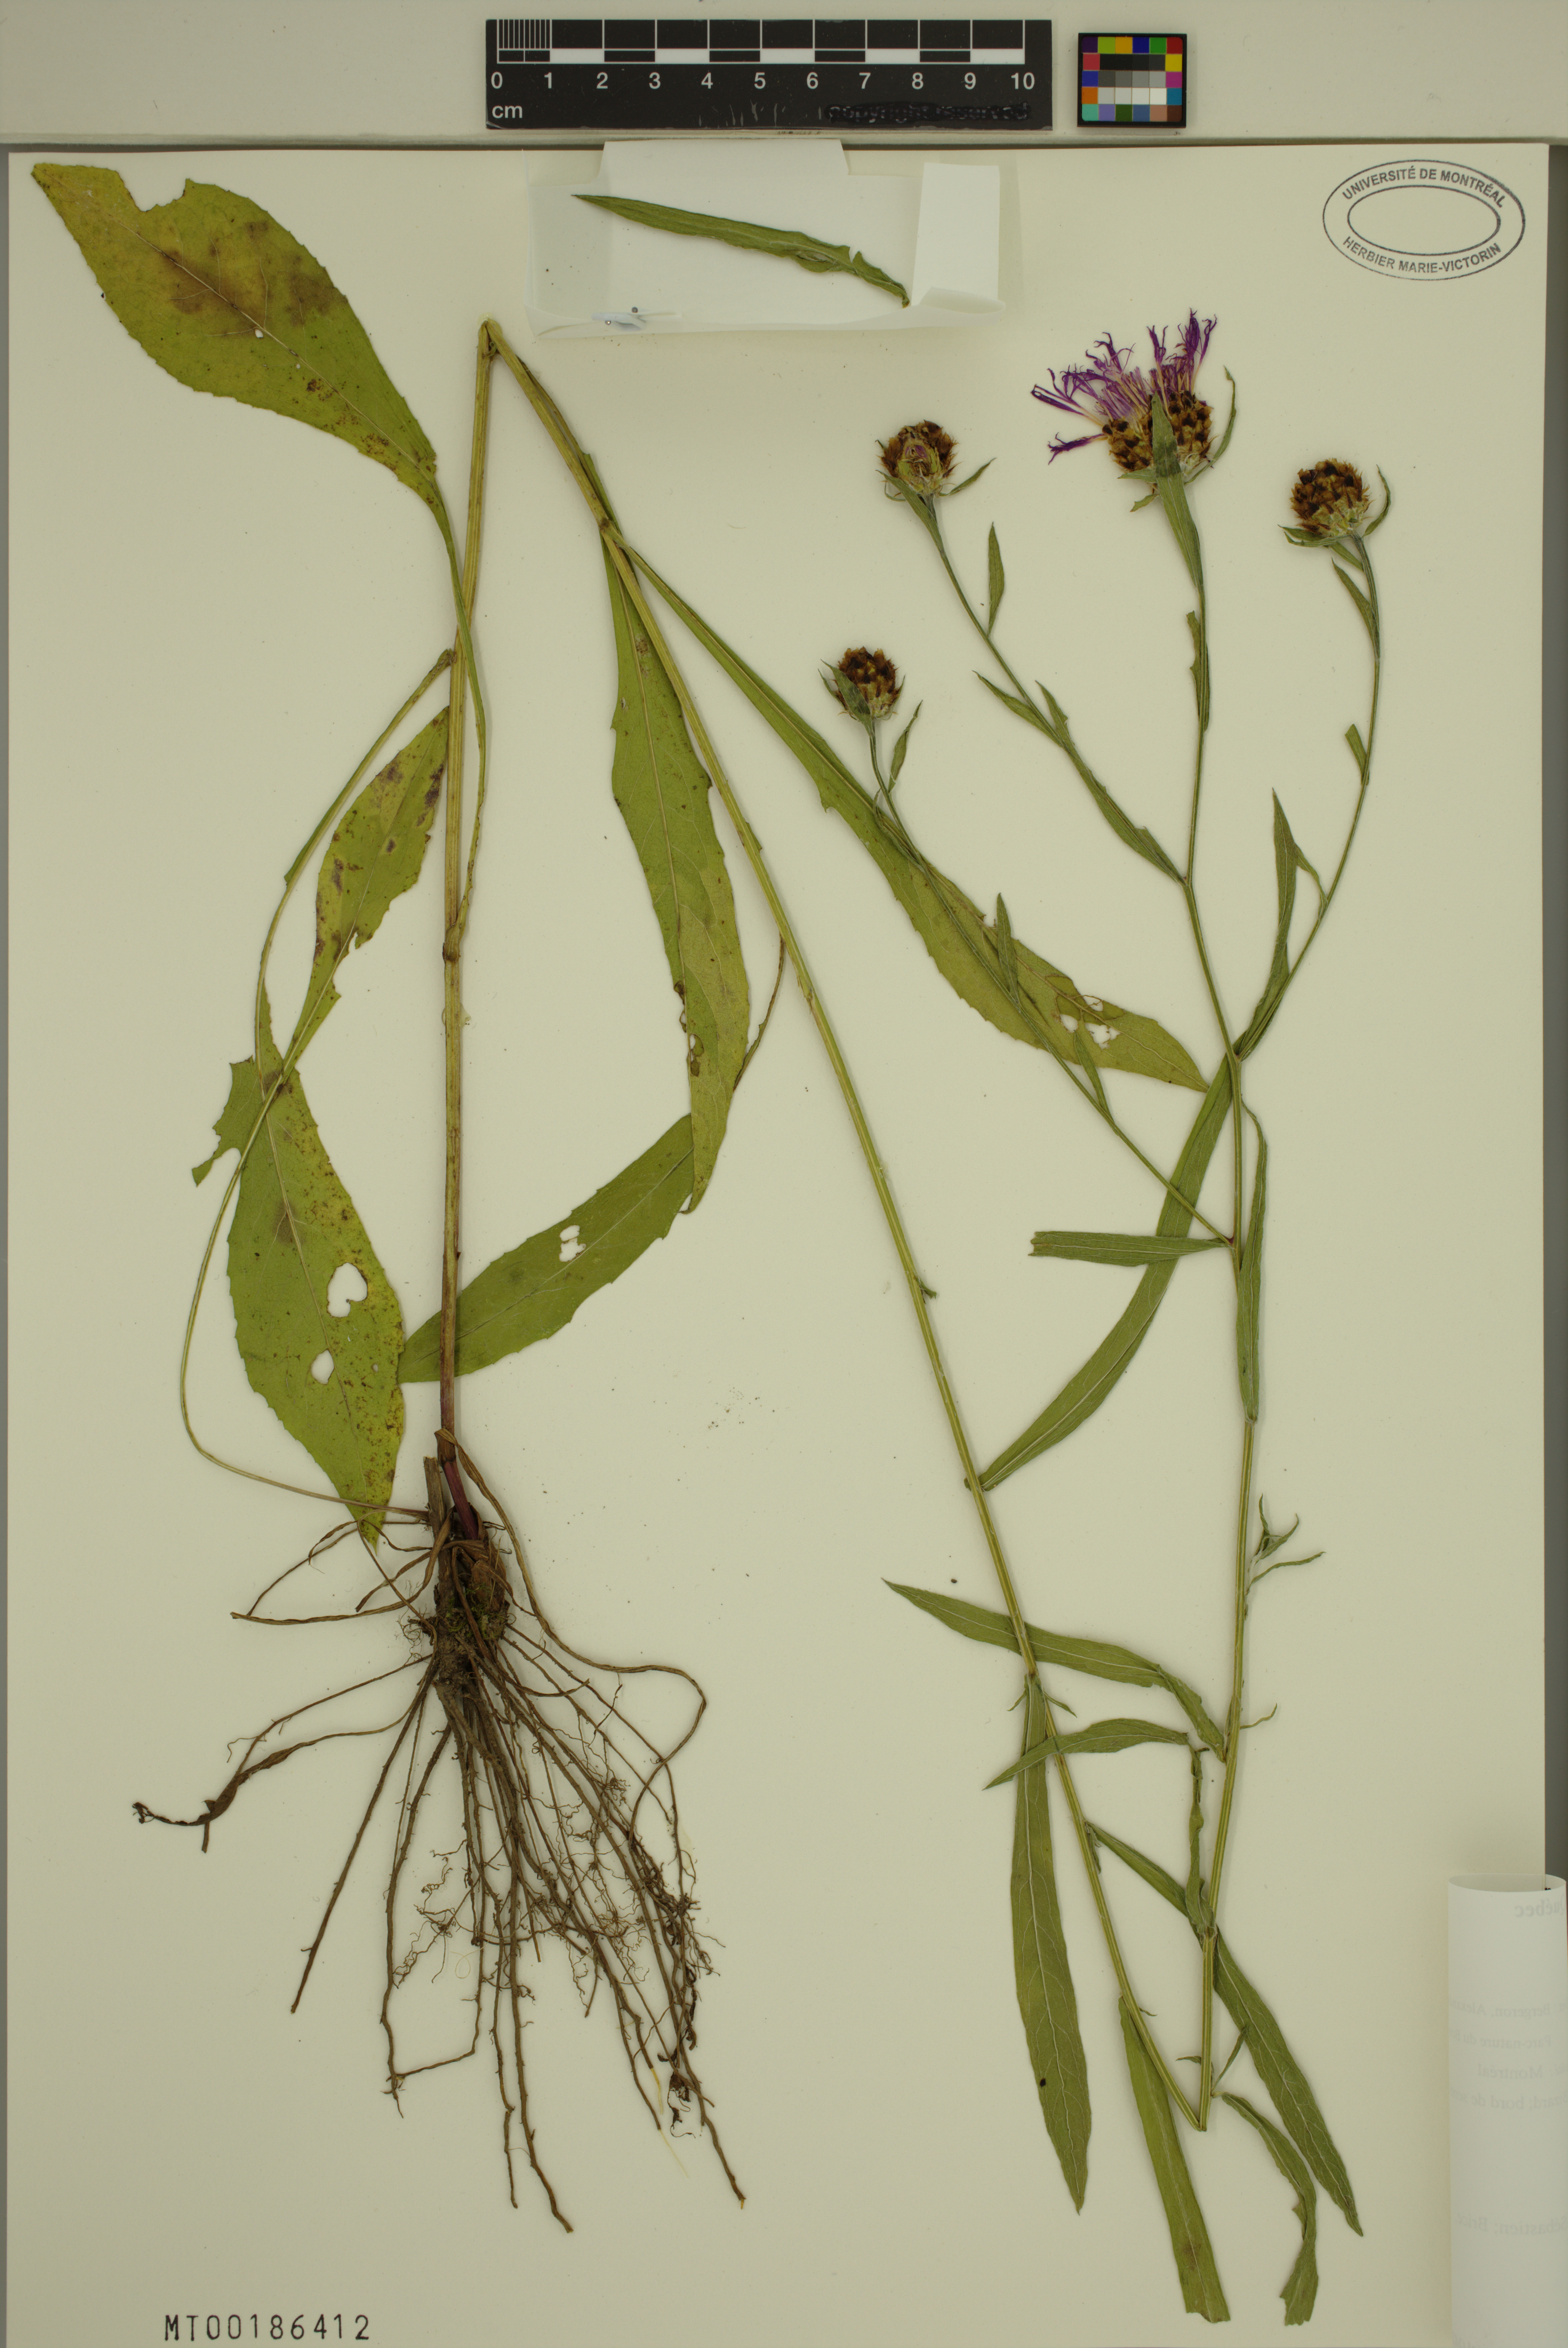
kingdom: Plantae
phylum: Tracheophyta
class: Magnoliopsida
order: Asterales
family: Asteraceae
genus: Centaurea
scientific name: Centaurea jacea
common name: Brown knapweed
